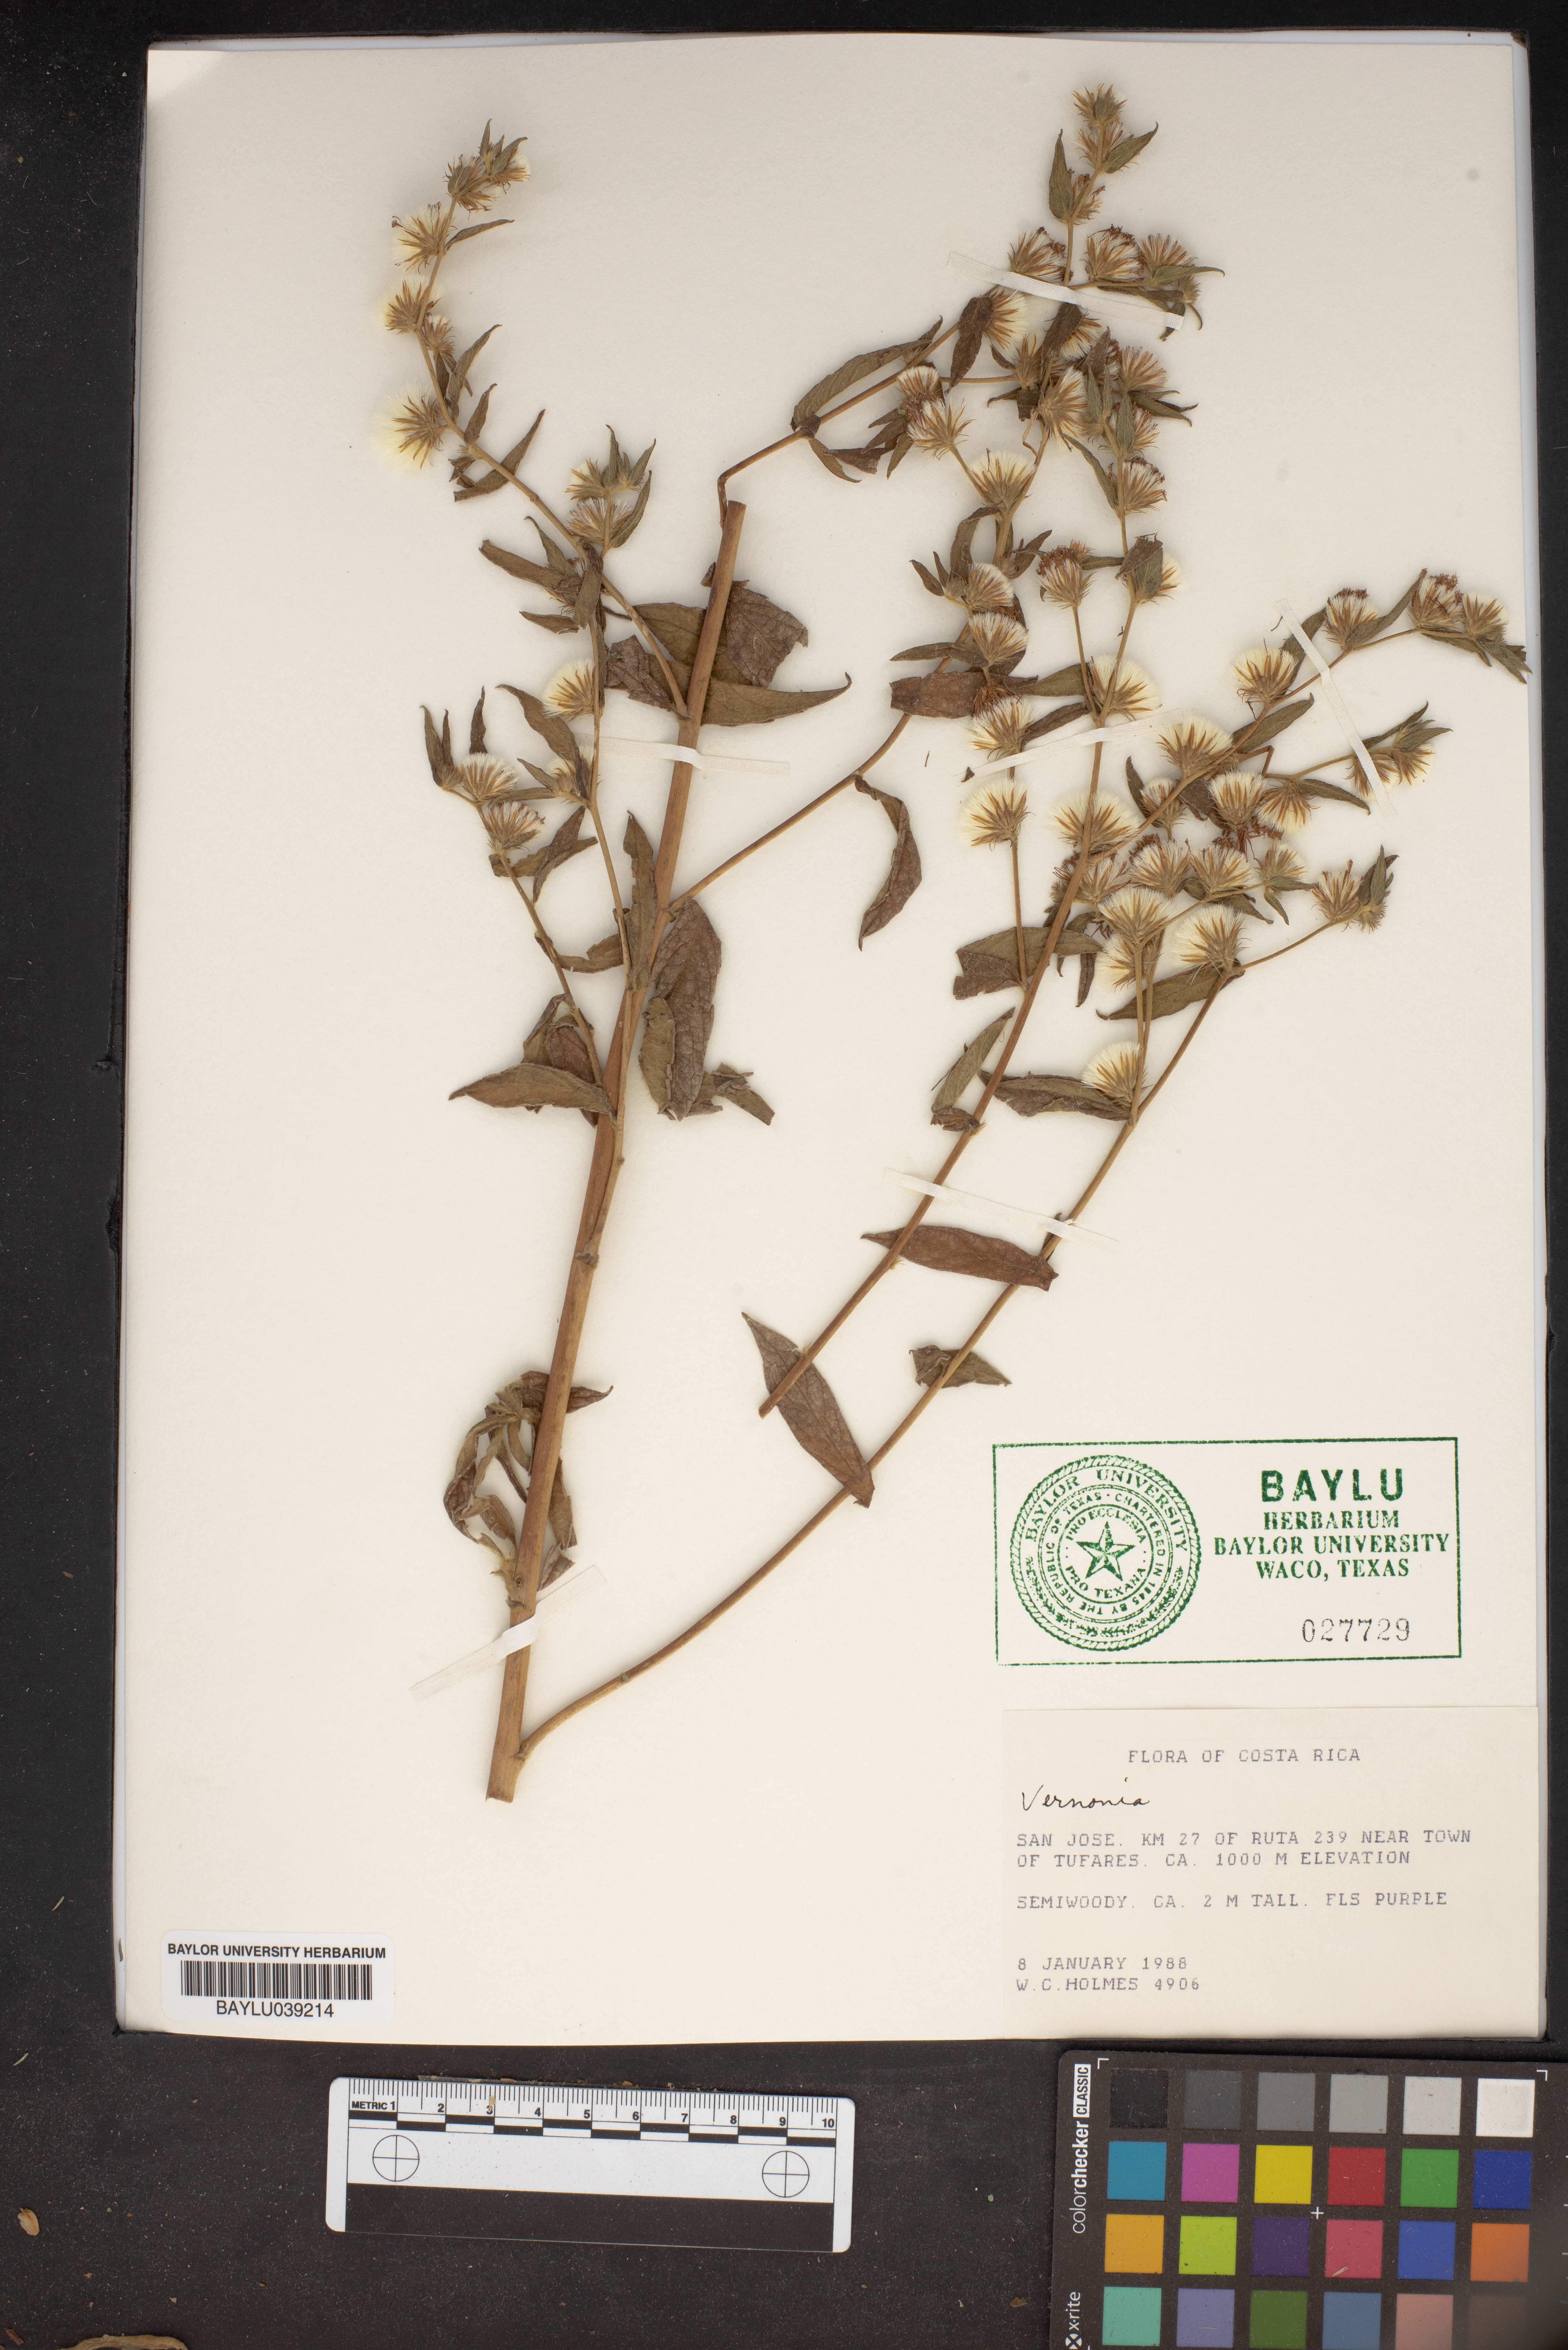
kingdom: Plantae
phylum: Tracheophyta
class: Magnoliopsida
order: Lamiales
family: Plantaginaceae
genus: Veronica
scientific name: Veronica
